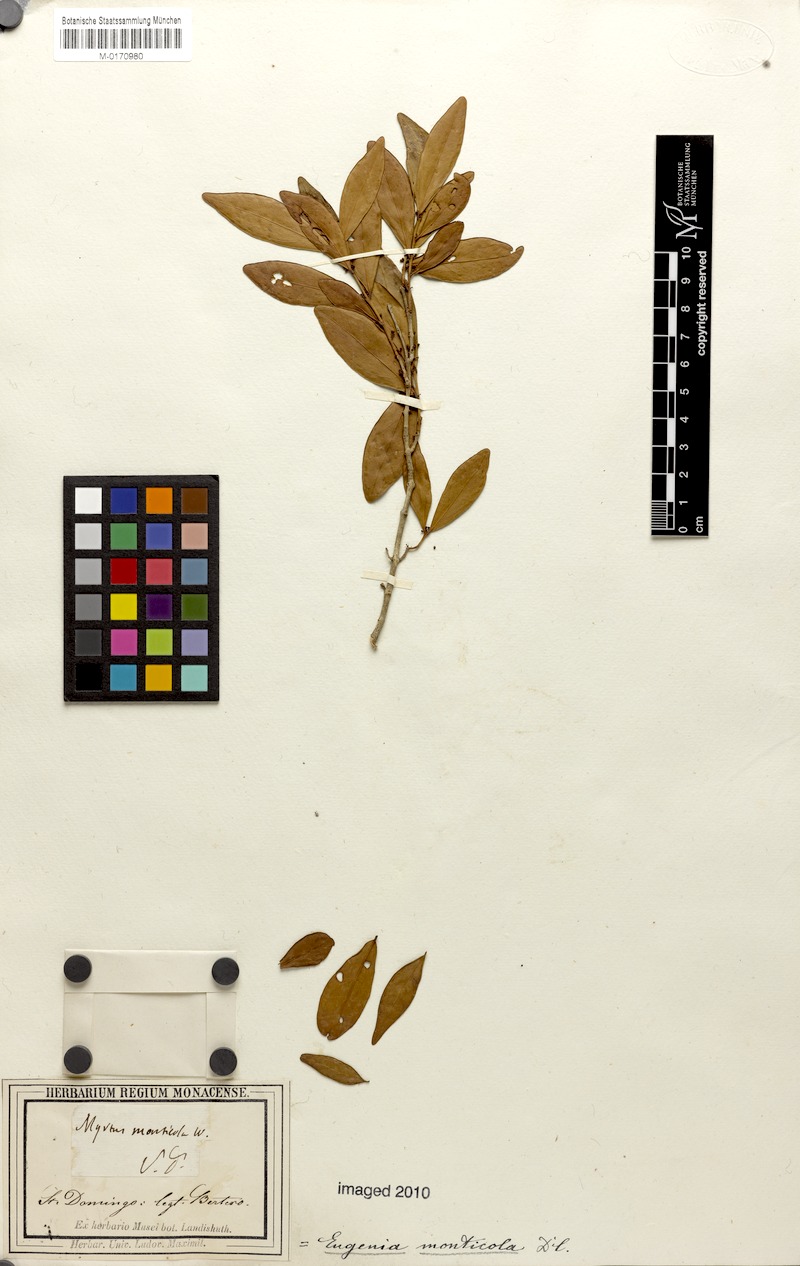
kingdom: Plantae
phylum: Tracheophyta
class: Magnoliopsida
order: Myrtales
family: Myrtaceae
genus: Eugenia
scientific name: Eugenia monticola
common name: Birds berry
